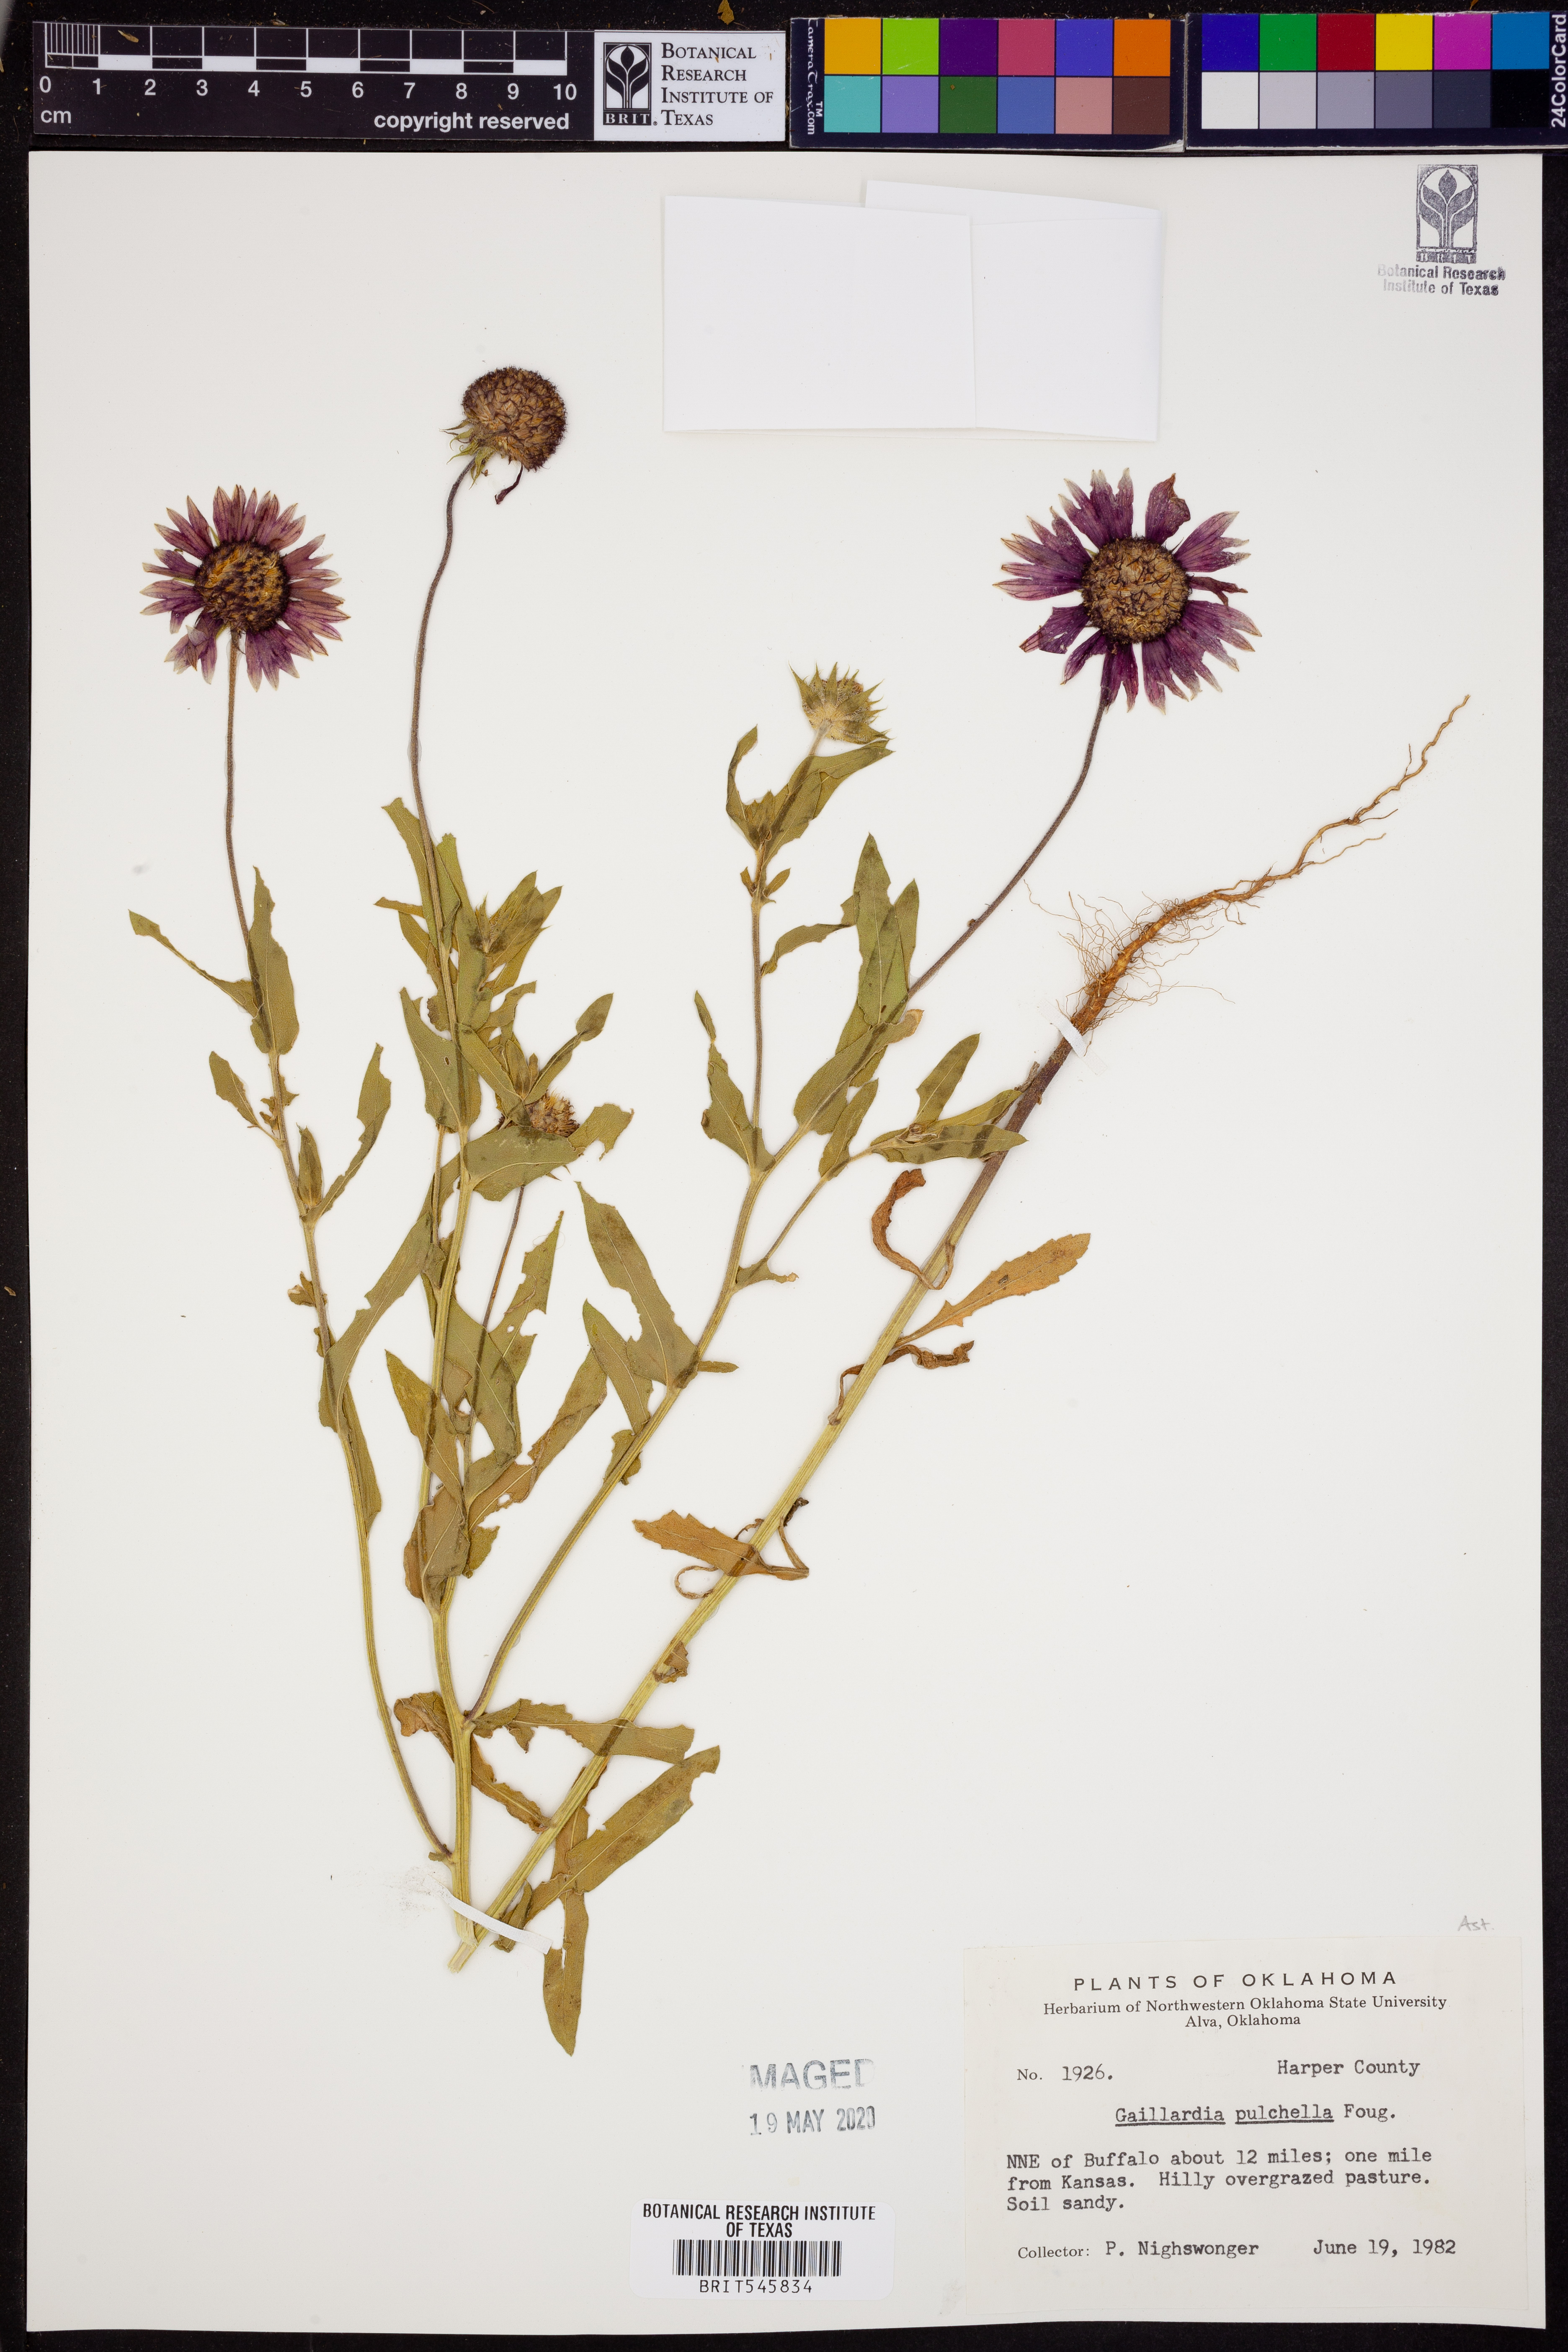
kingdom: Plantae
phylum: Tracheophyta
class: Magnoliopsida
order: Asterales
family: Asteraceae
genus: Gaillardia
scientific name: Gaillardia pulchella
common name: Firewheel
